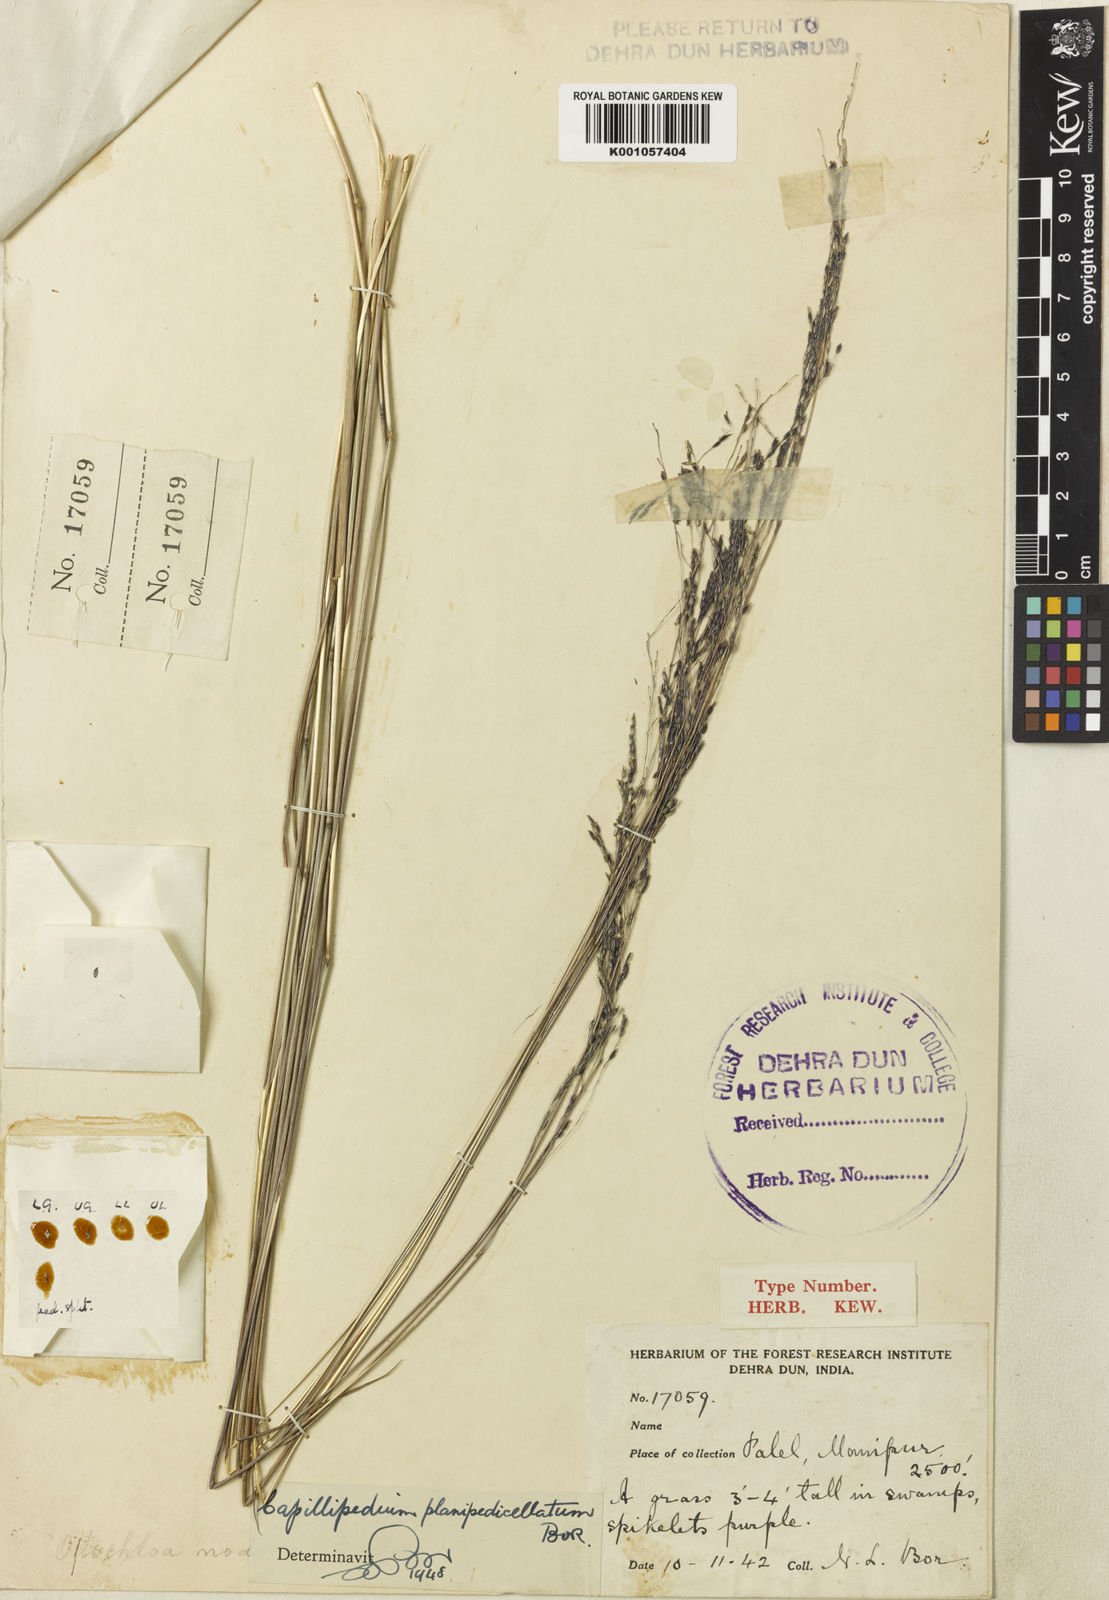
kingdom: Plantae
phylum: Tracheophyta
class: Liliopsida
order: Poales
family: Poaceae
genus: Capillipedium
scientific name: Capillipedium planipedicellatum
